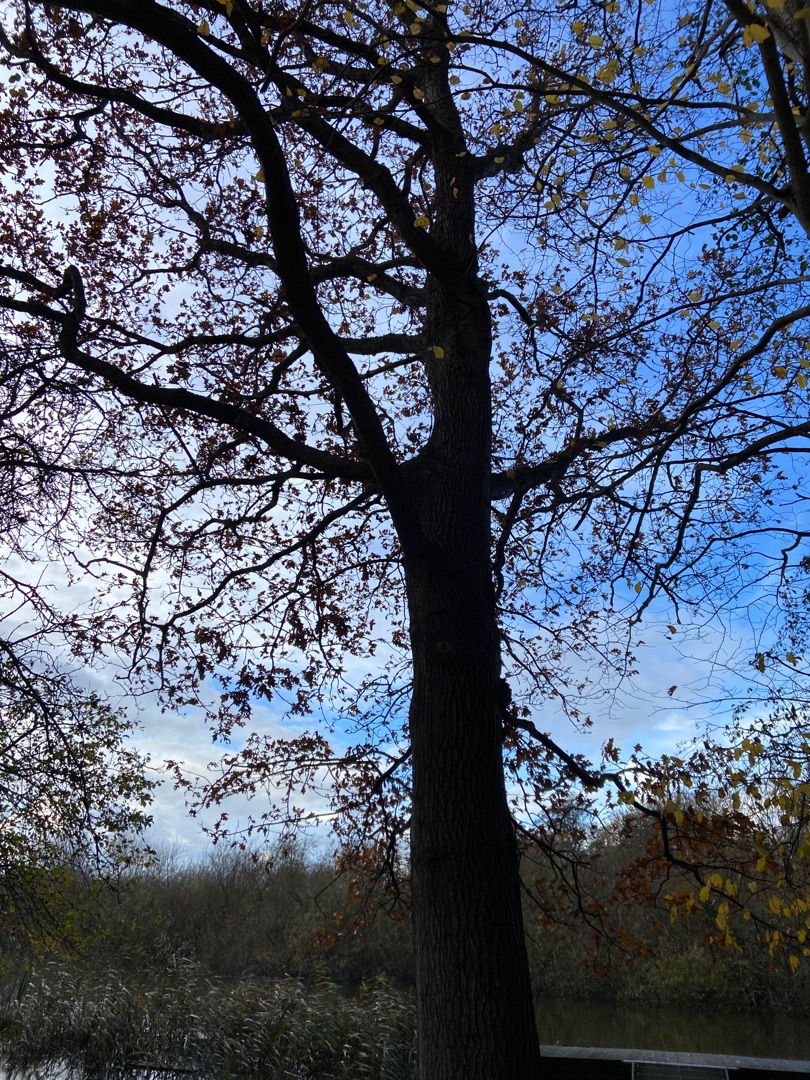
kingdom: Plantae
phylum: Tracheophyta
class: Magnoliopsida
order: Fagales
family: Fagaceae
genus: Quercus
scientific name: Quercus robur
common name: Stilk-eg/almindelig eg
